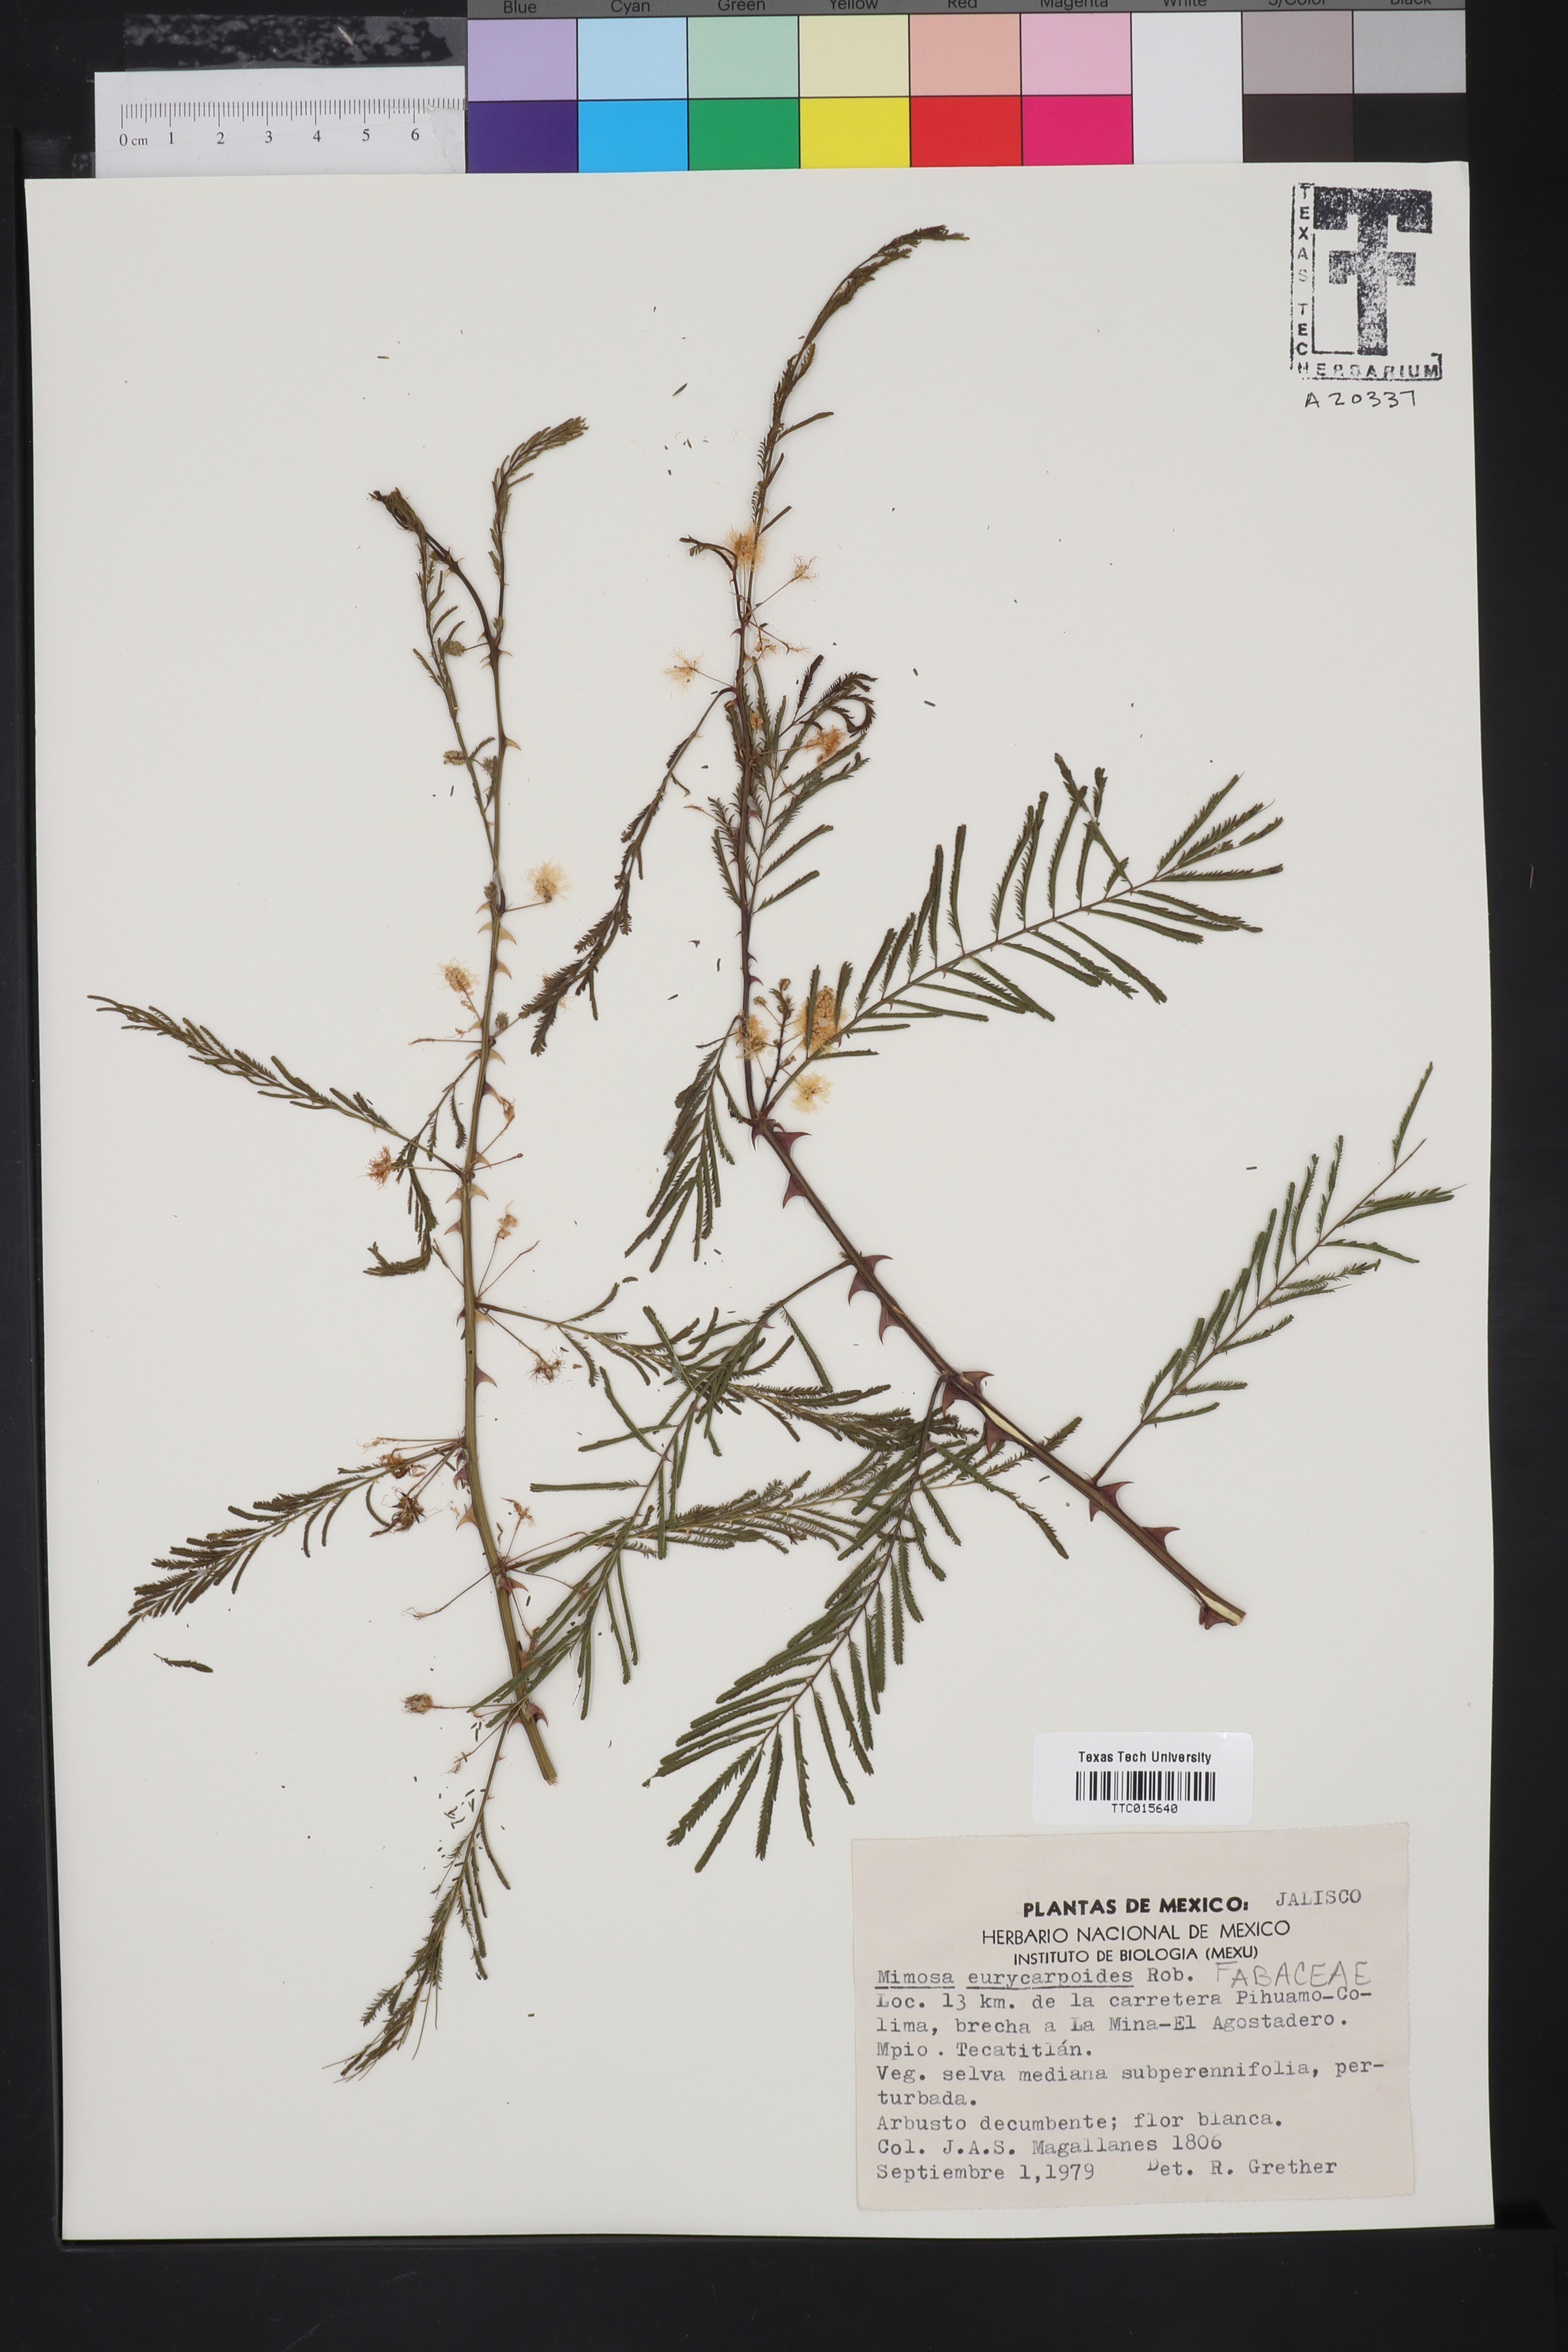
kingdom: Plantae
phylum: Tracheophyta
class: Magnoliopsida
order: Fabales
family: Fabaceae
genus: Mimosa
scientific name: Mimosa acantholoba
